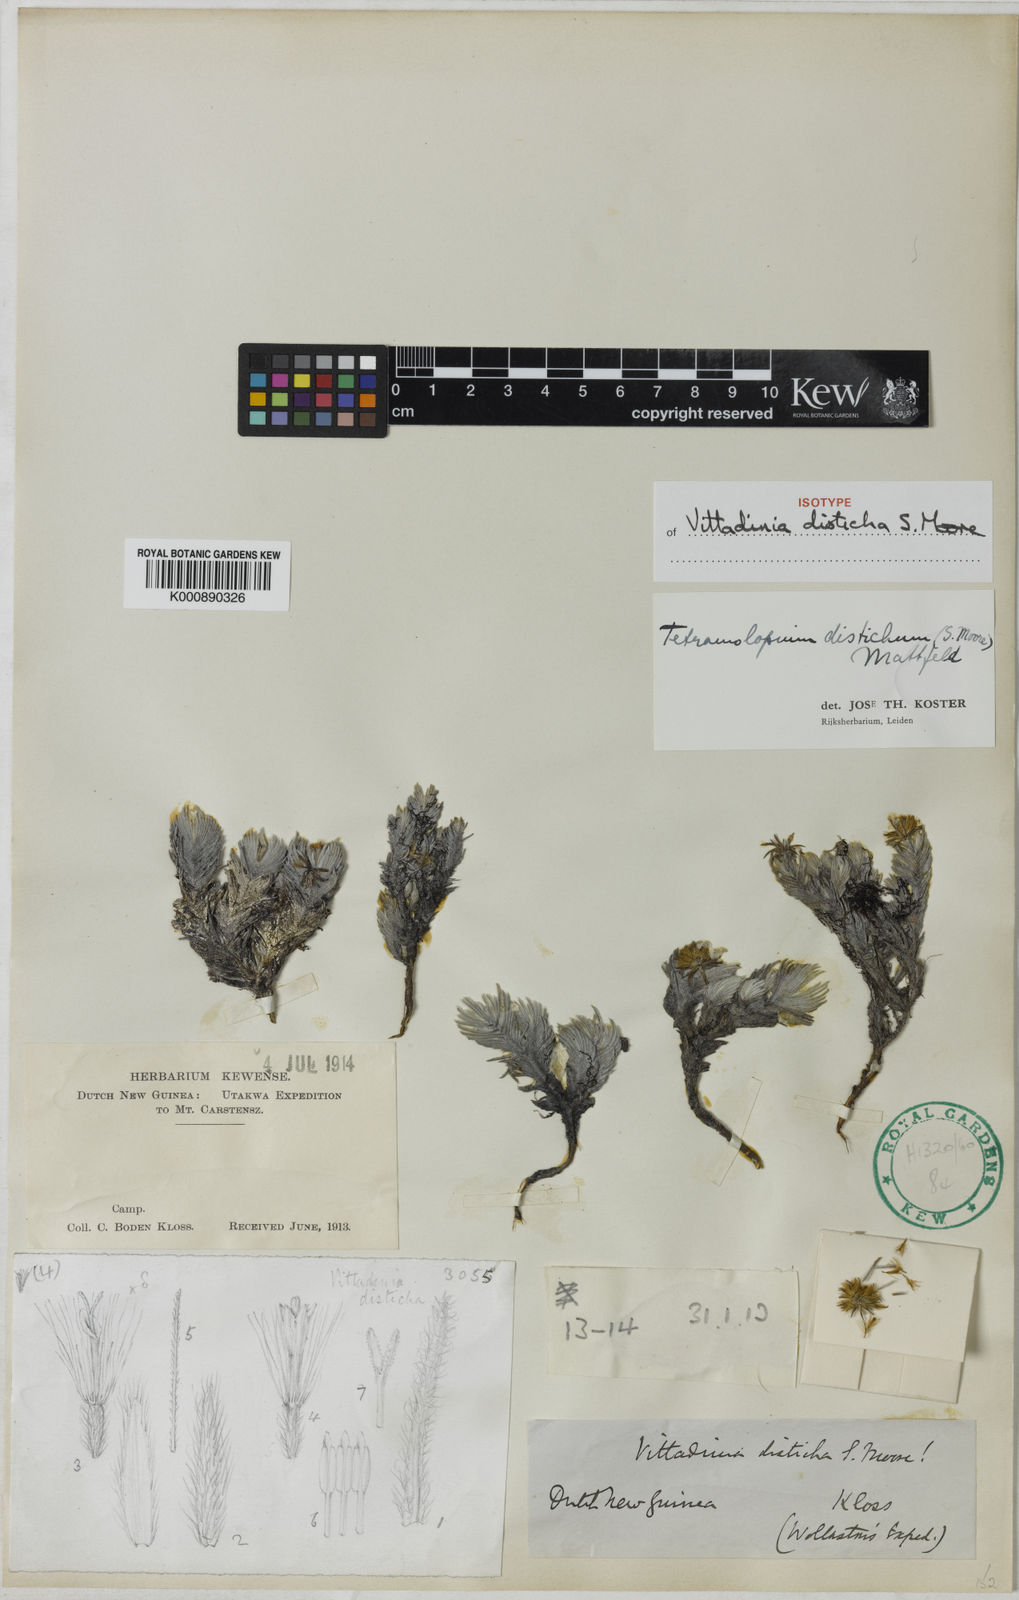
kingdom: Plantae
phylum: Tracheophyta
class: Magnoliopsida
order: Asterales
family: Asteraceae
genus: Tetramolopium
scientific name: Tetramolopium distichum
